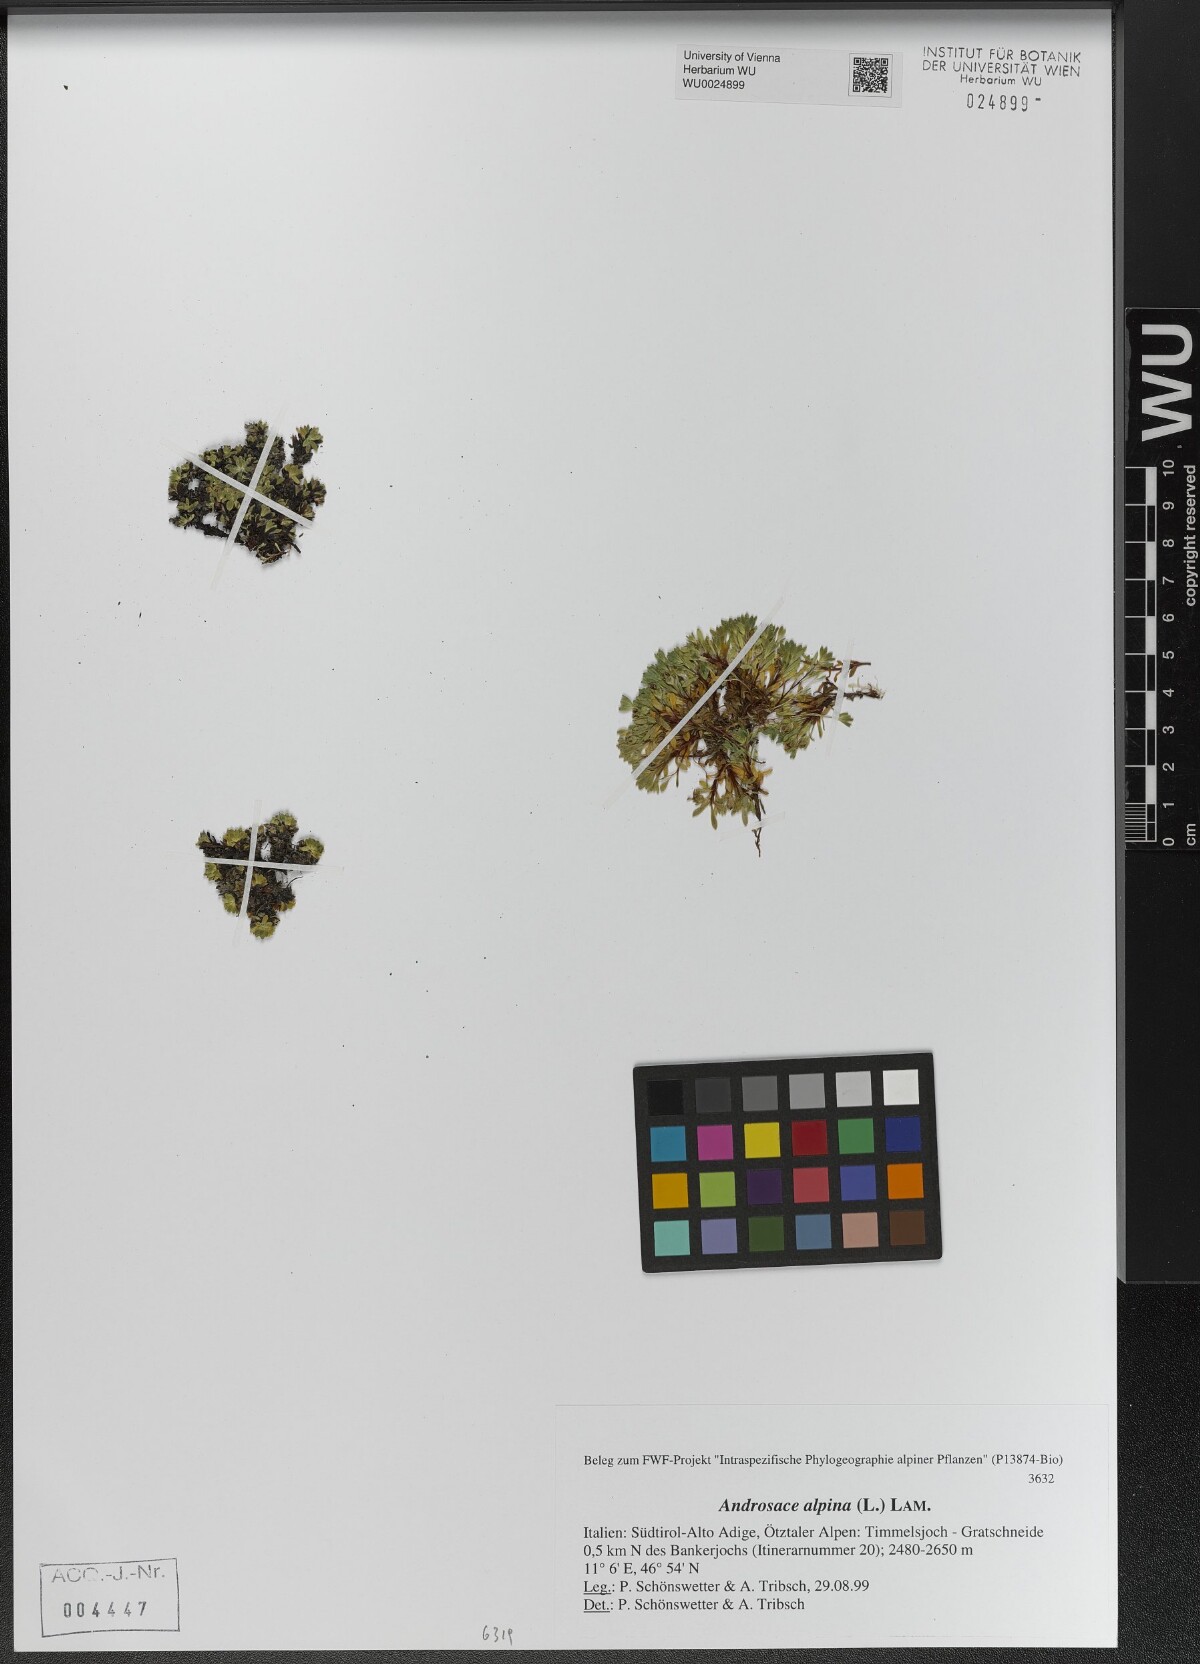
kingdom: Plantae
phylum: Tracheophyta
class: Magnoliopsida
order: Ericales
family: Primulaceae
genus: Androsace
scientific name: Androsace alpina
